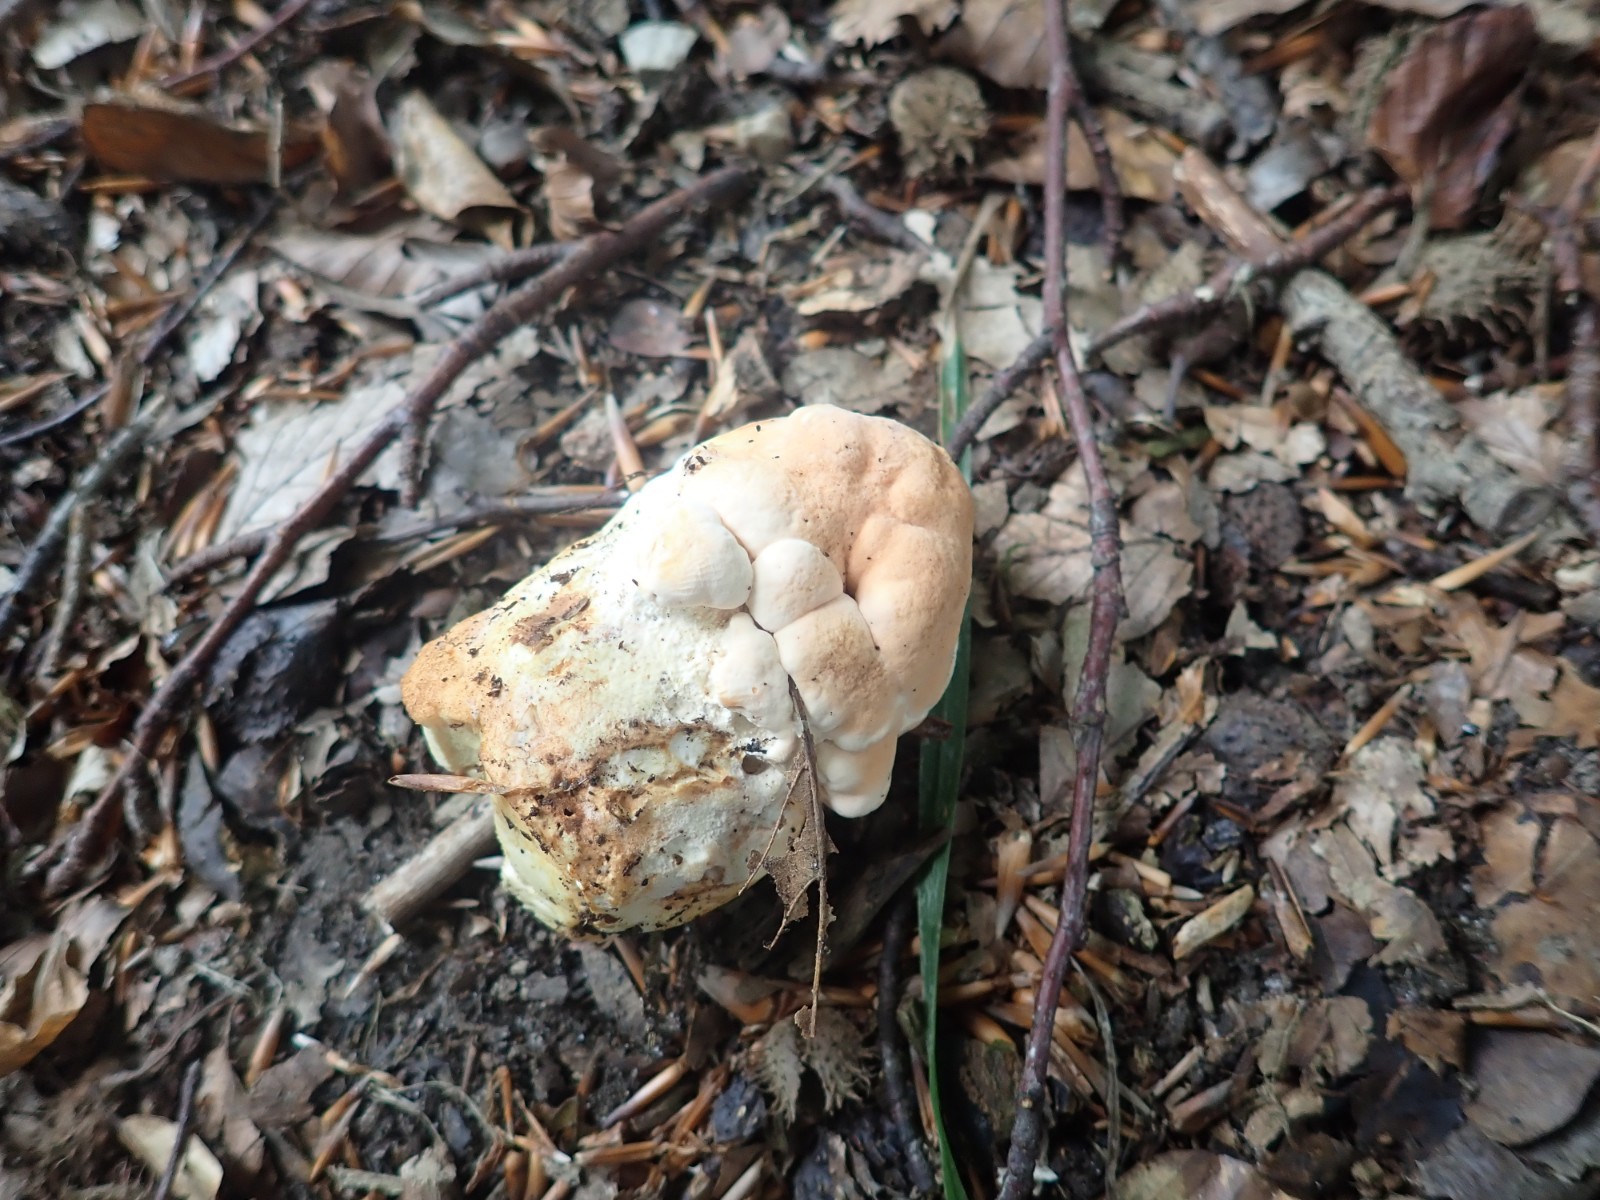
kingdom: Fungi
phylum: Basidiomycota
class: Agaricomycetes
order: Cantharellales
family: Hydnaceae
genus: Hydnum
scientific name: Hydnum
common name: pigsvamp
